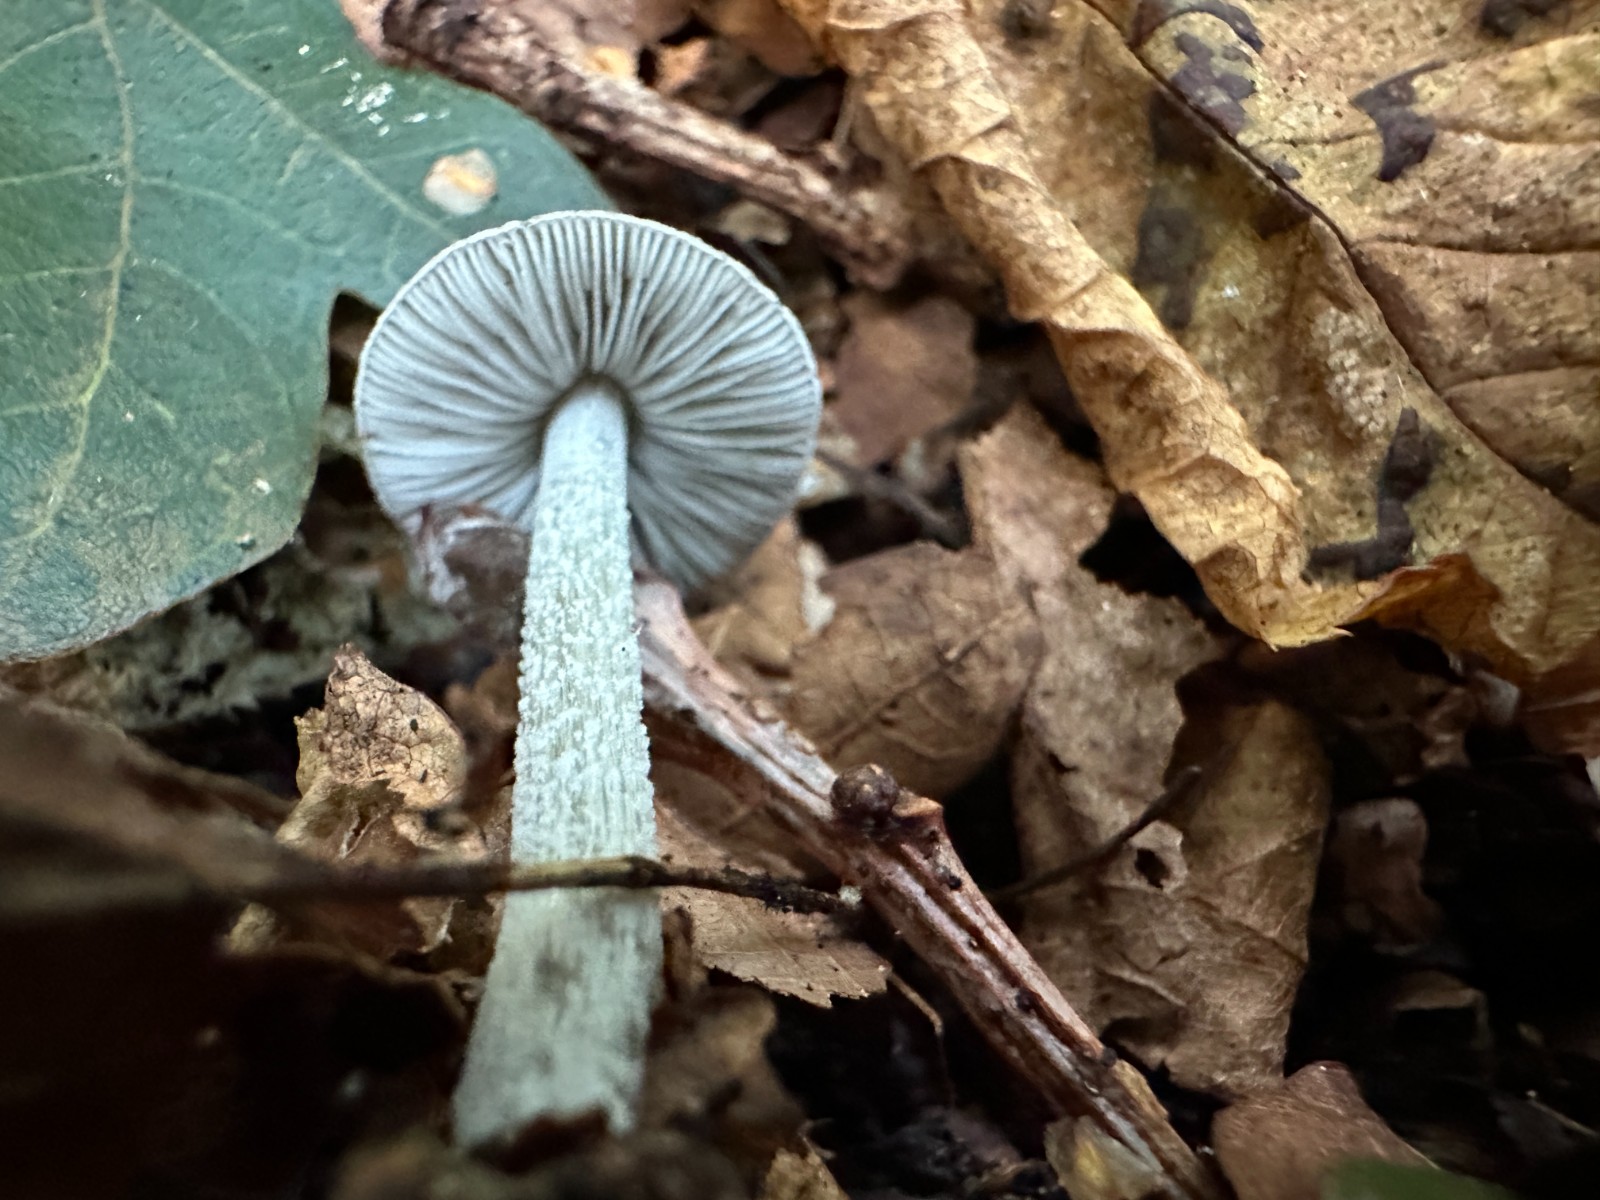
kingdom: Fungi
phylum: Basidiomycota
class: Agaricomycetes
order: Agaricales
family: Pluteaceae
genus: Pluteus
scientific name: Pluteus
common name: gråstokket skærmhat
